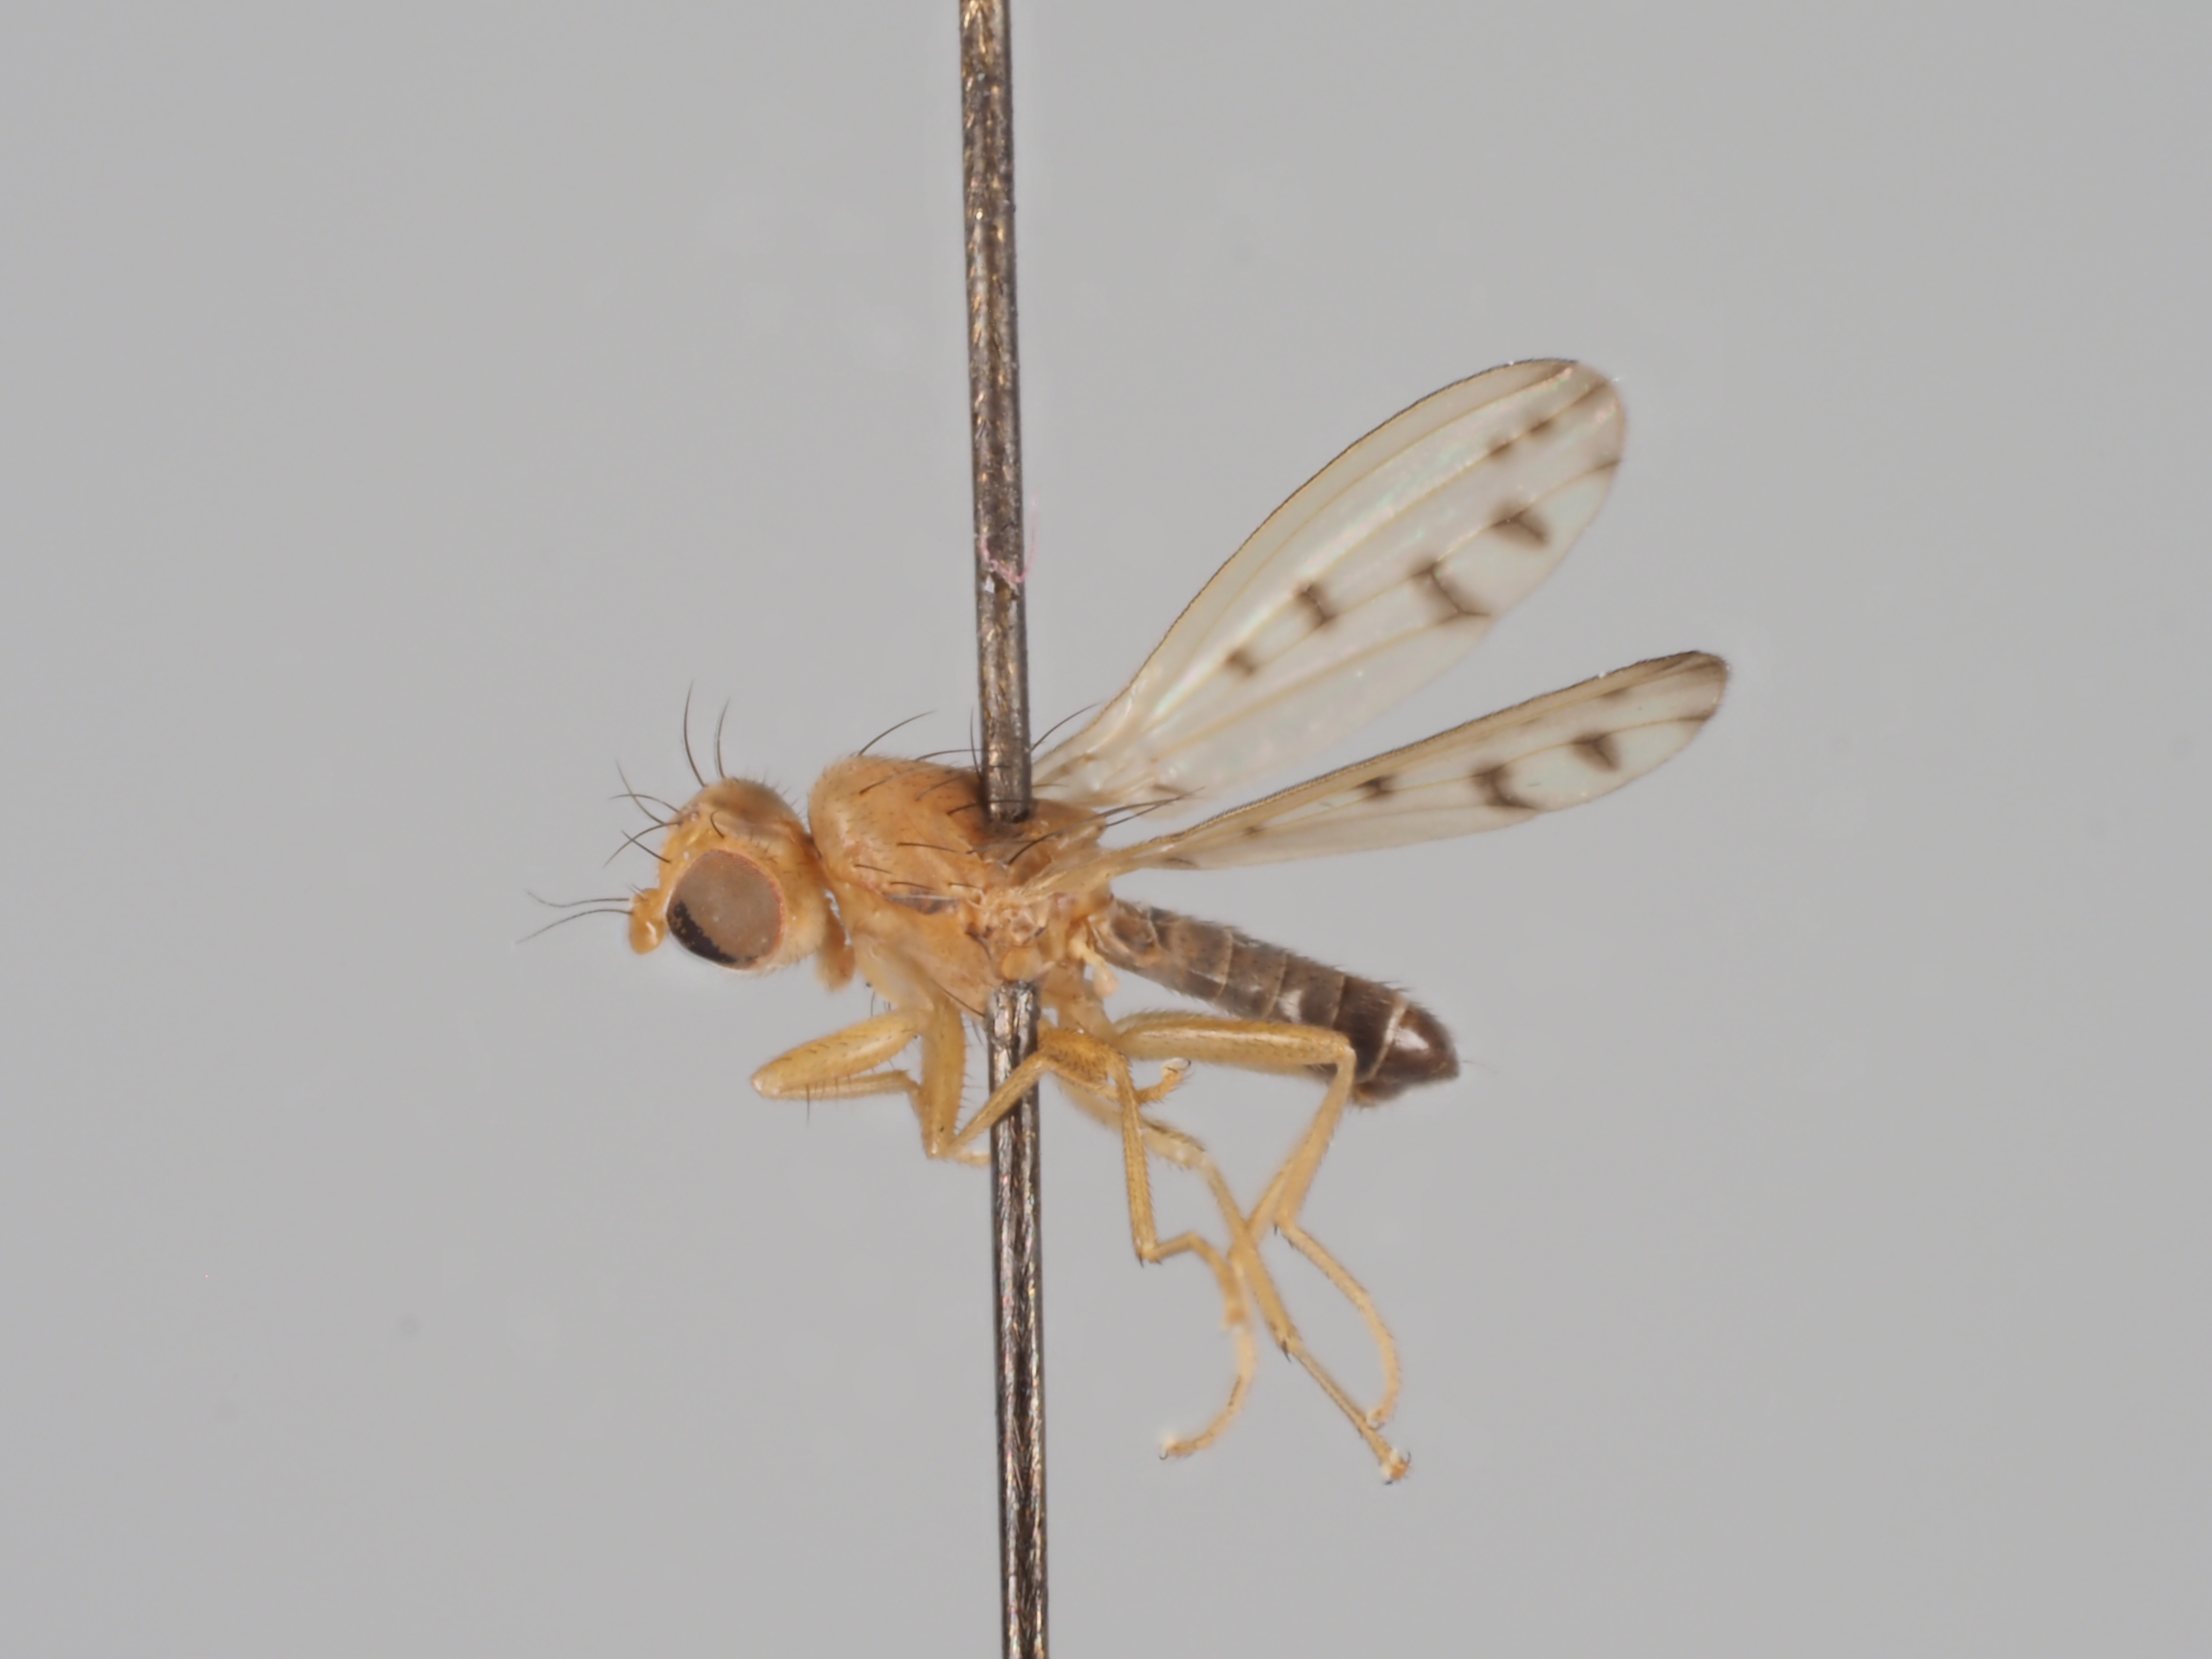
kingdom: Animalia
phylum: Arthropoda
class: Insecta
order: Diptera
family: Opomyzidae
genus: Opomyza
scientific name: Opomyza punctella
